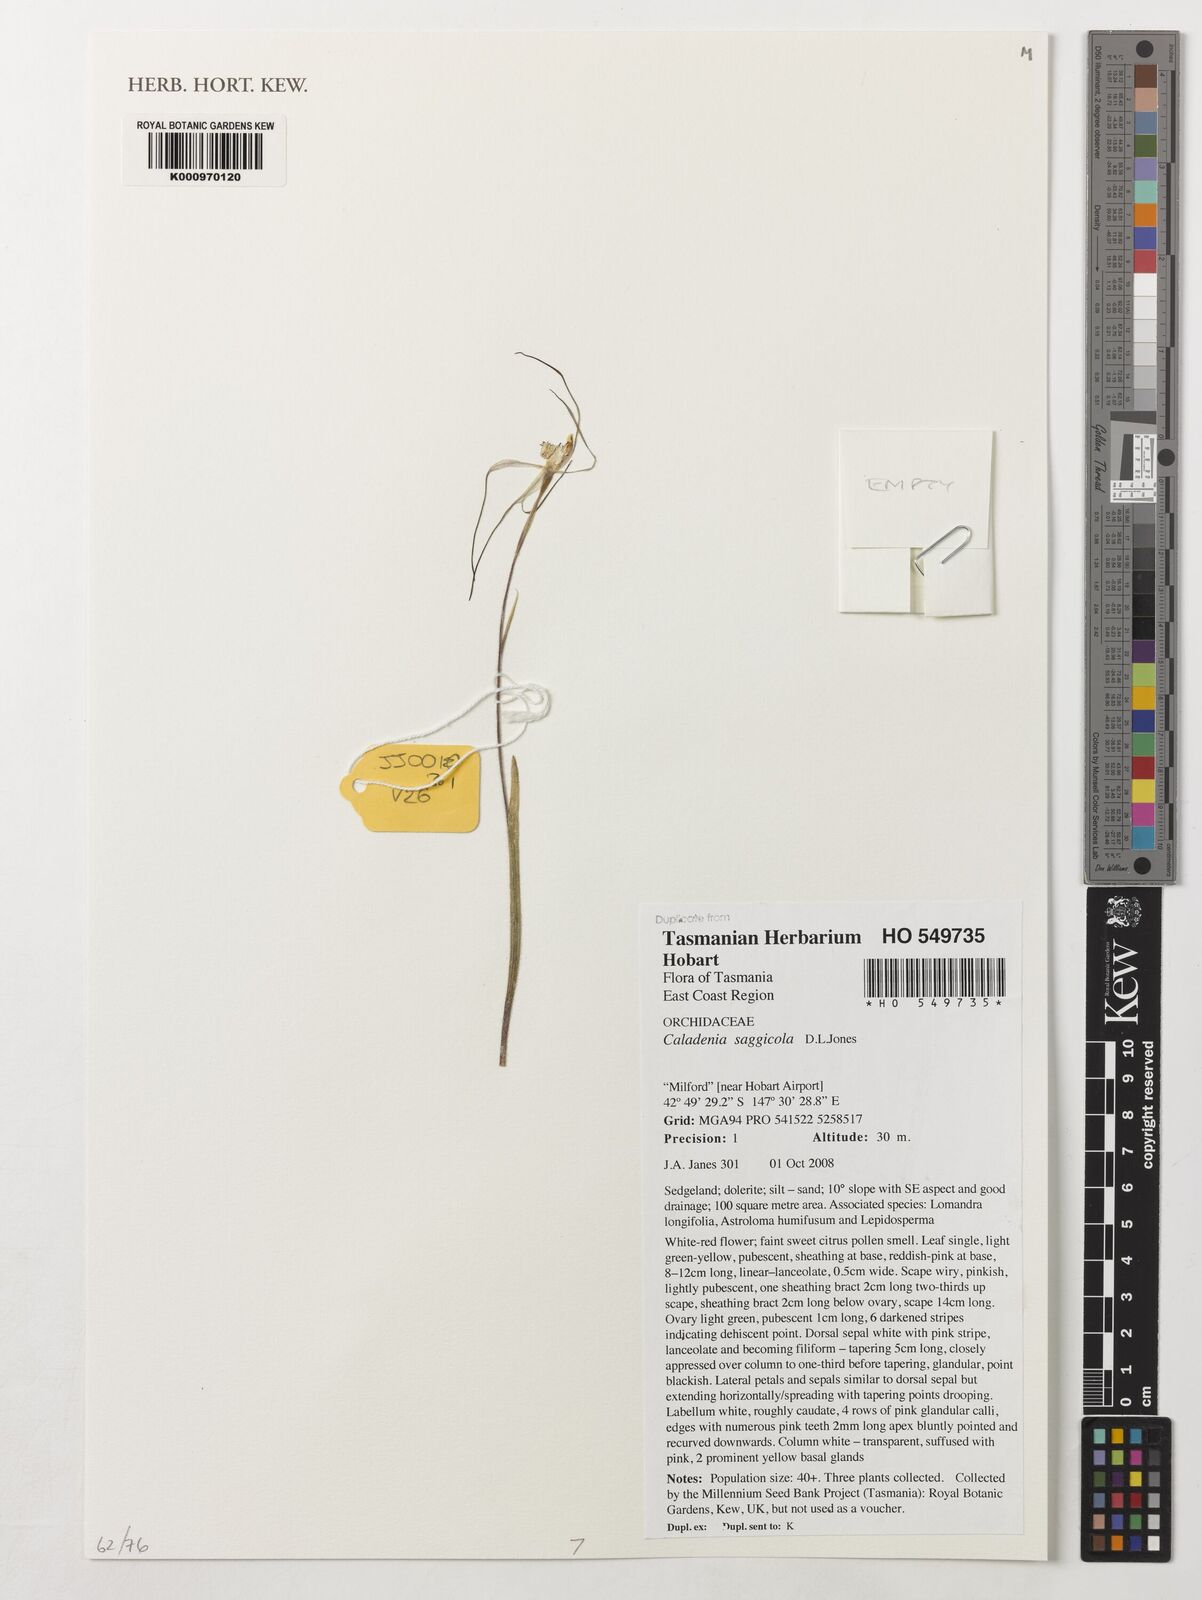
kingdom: Plantae
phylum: Tracheophyta
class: Liliopsida
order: Asparagales
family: Orchidaceae
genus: Caladenia
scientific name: Caladenia saggicola
